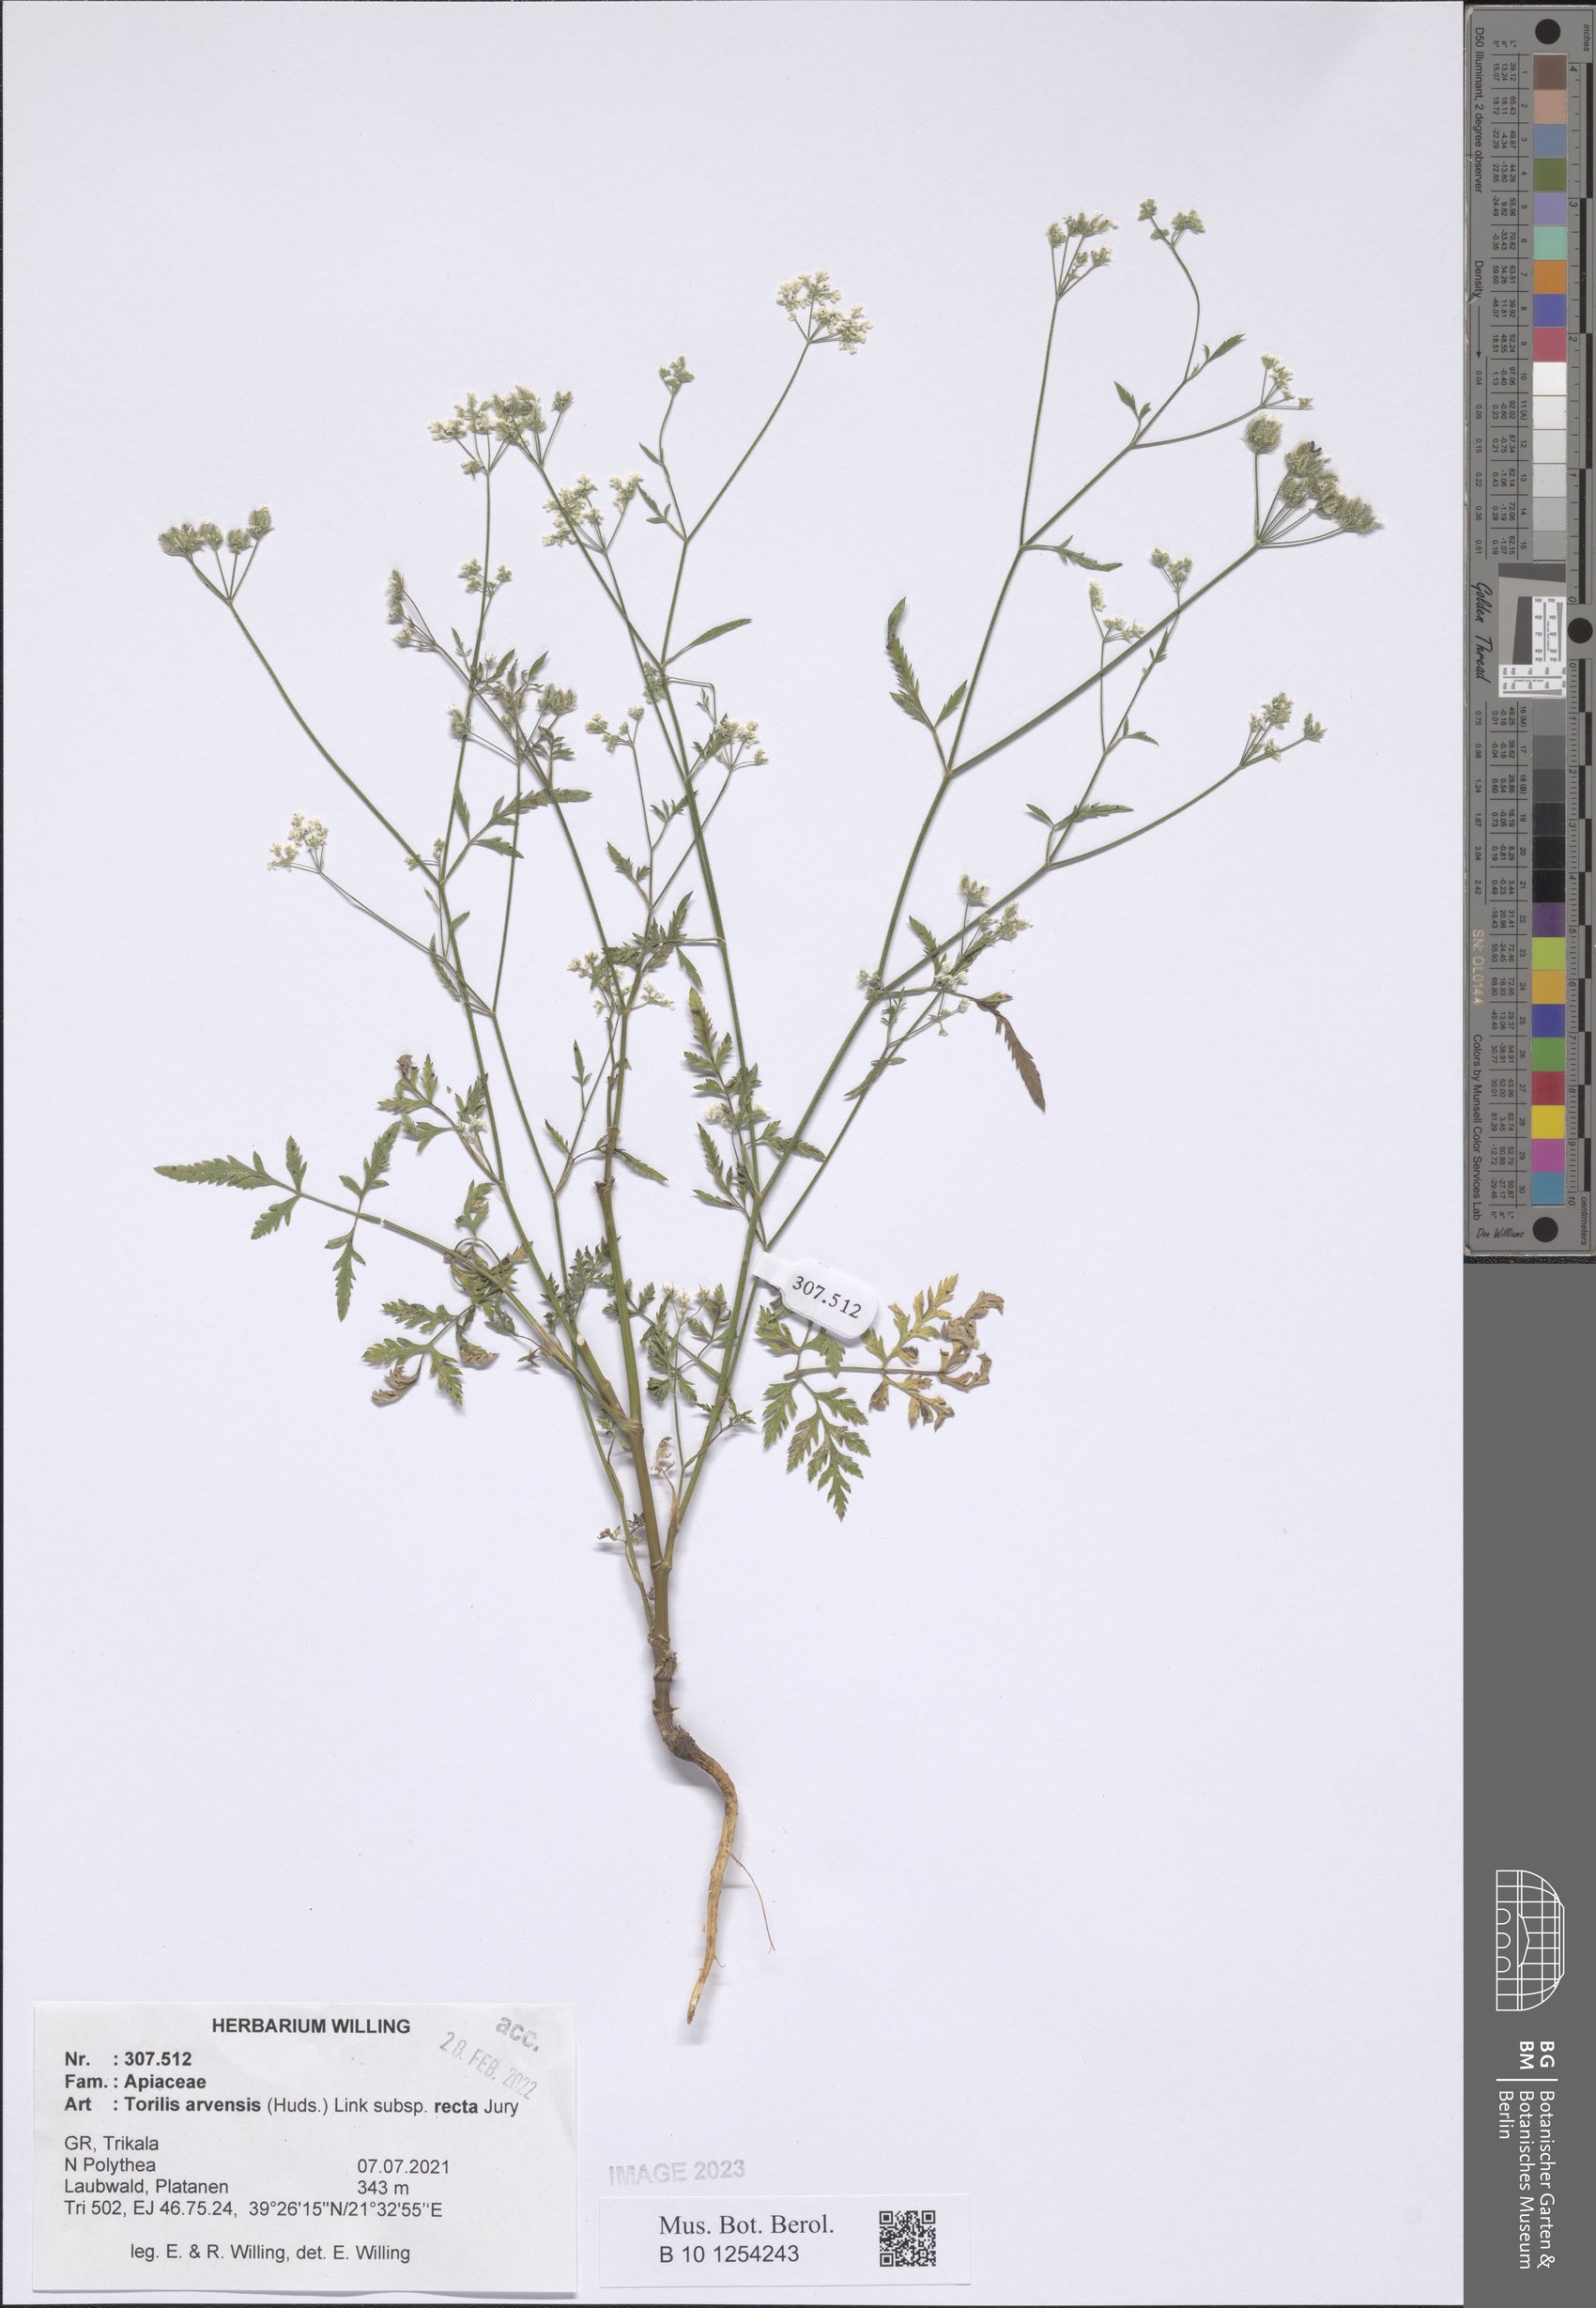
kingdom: Plantae
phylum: Tracheophyta
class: Magnoliopsida
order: Apiales
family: Apiaceae
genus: Torilis
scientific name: Torilis arvensis
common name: Spreading hedge-parsley
